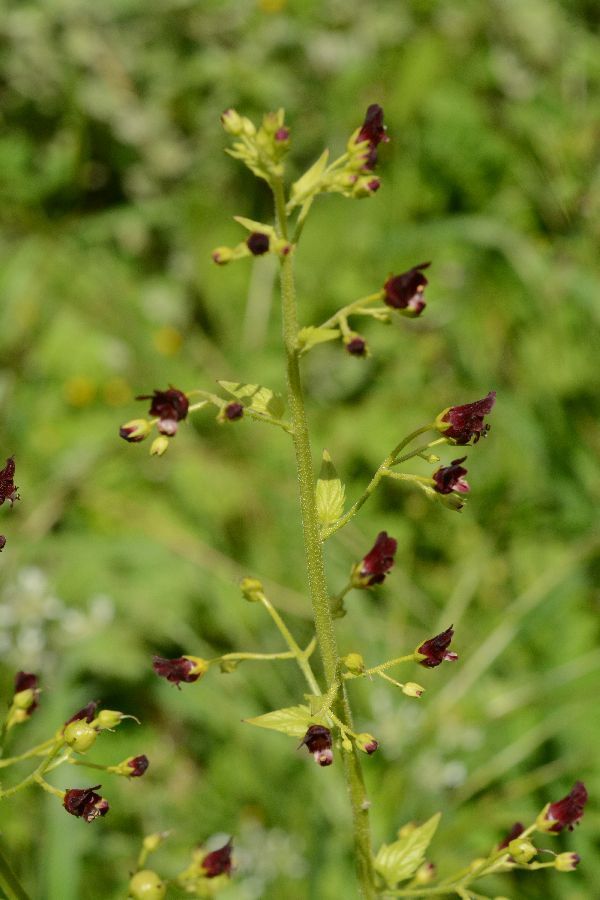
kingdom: Plantae
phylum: Tracheophyta
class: Liliopsida
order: Asparagales
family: Asparagaceae
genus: Asparagus
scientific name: Asparagus aphyllus
